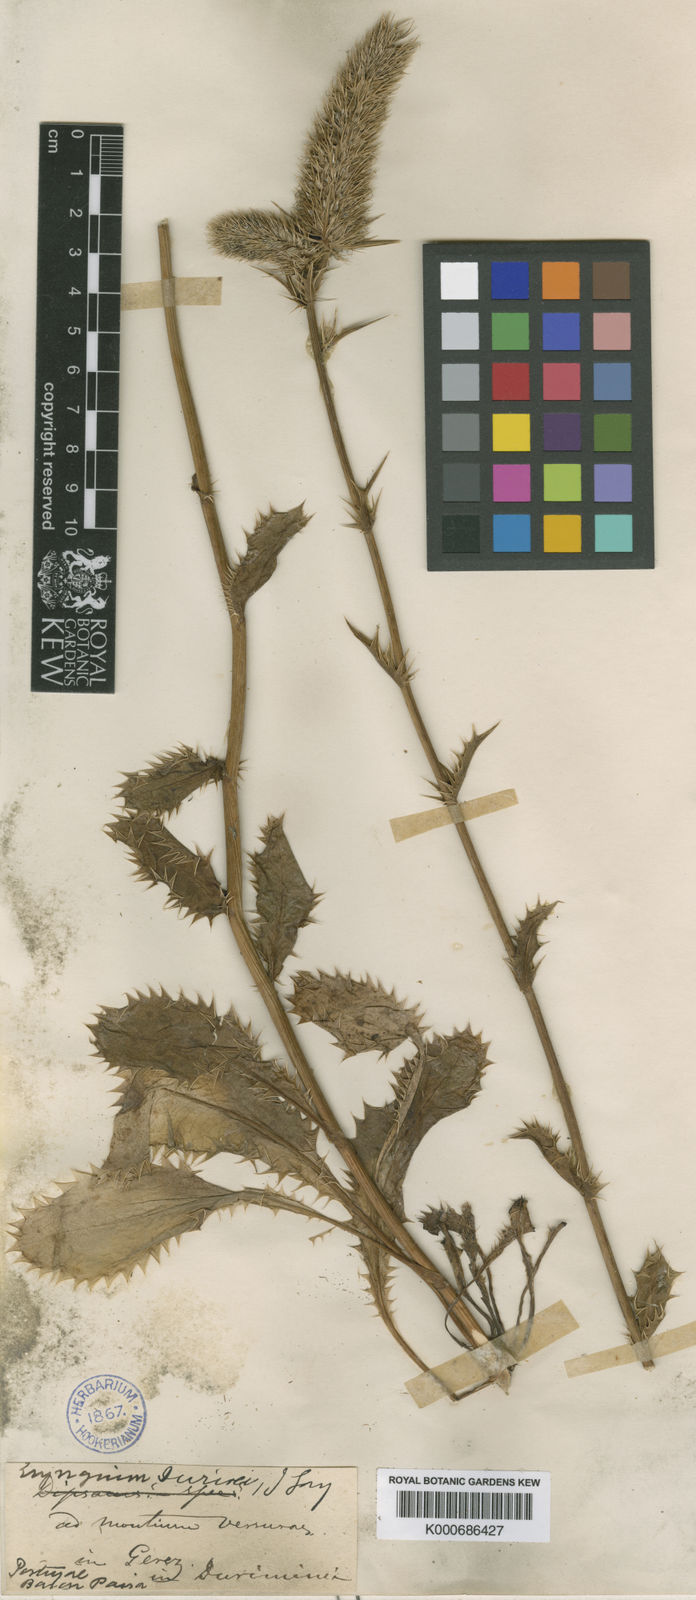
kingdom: Plantae
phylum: Tracheophyta
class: Magnoliopsida
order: Apiales
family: Apiaceae
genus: Eryngium
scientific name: Eryngium duriaei
